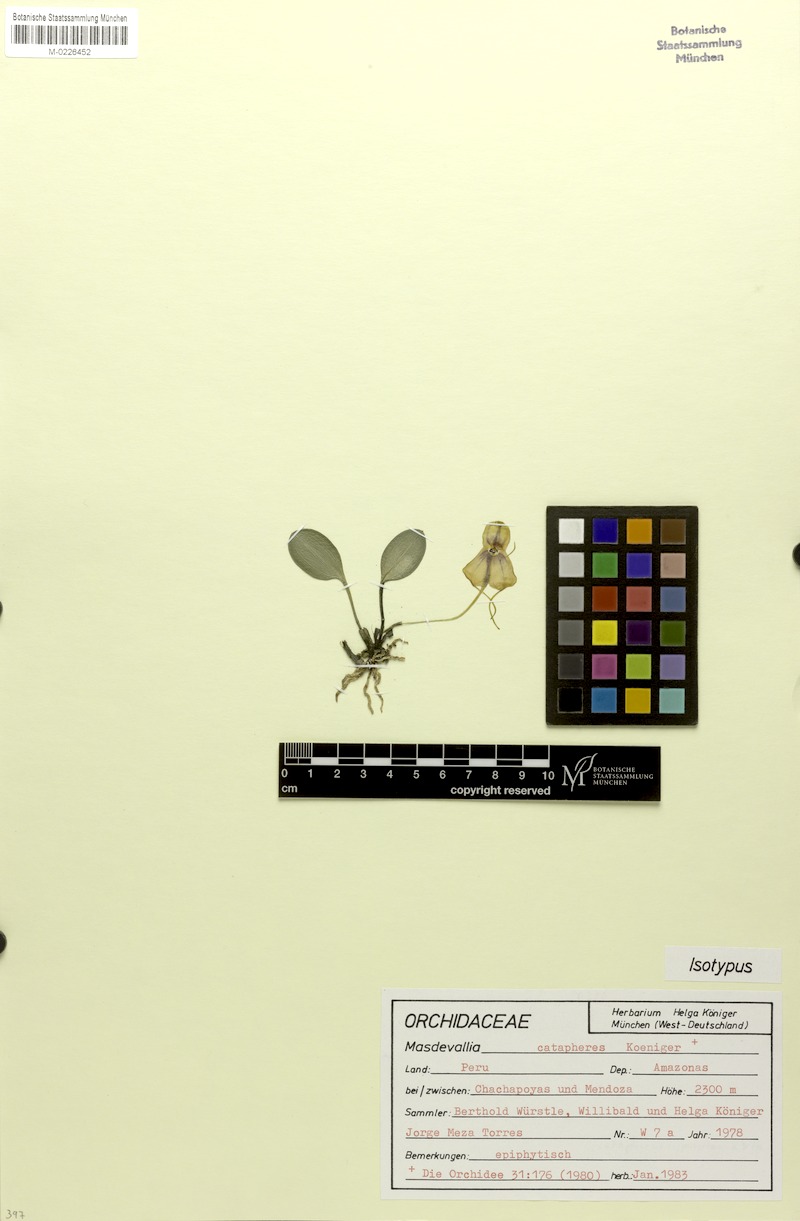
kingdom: Plantae
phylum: Tracheophyta
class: Liliopsida
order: Asparagales
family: Orchidaceae
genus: Masdevallia
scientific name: Masdevallia catapheres
